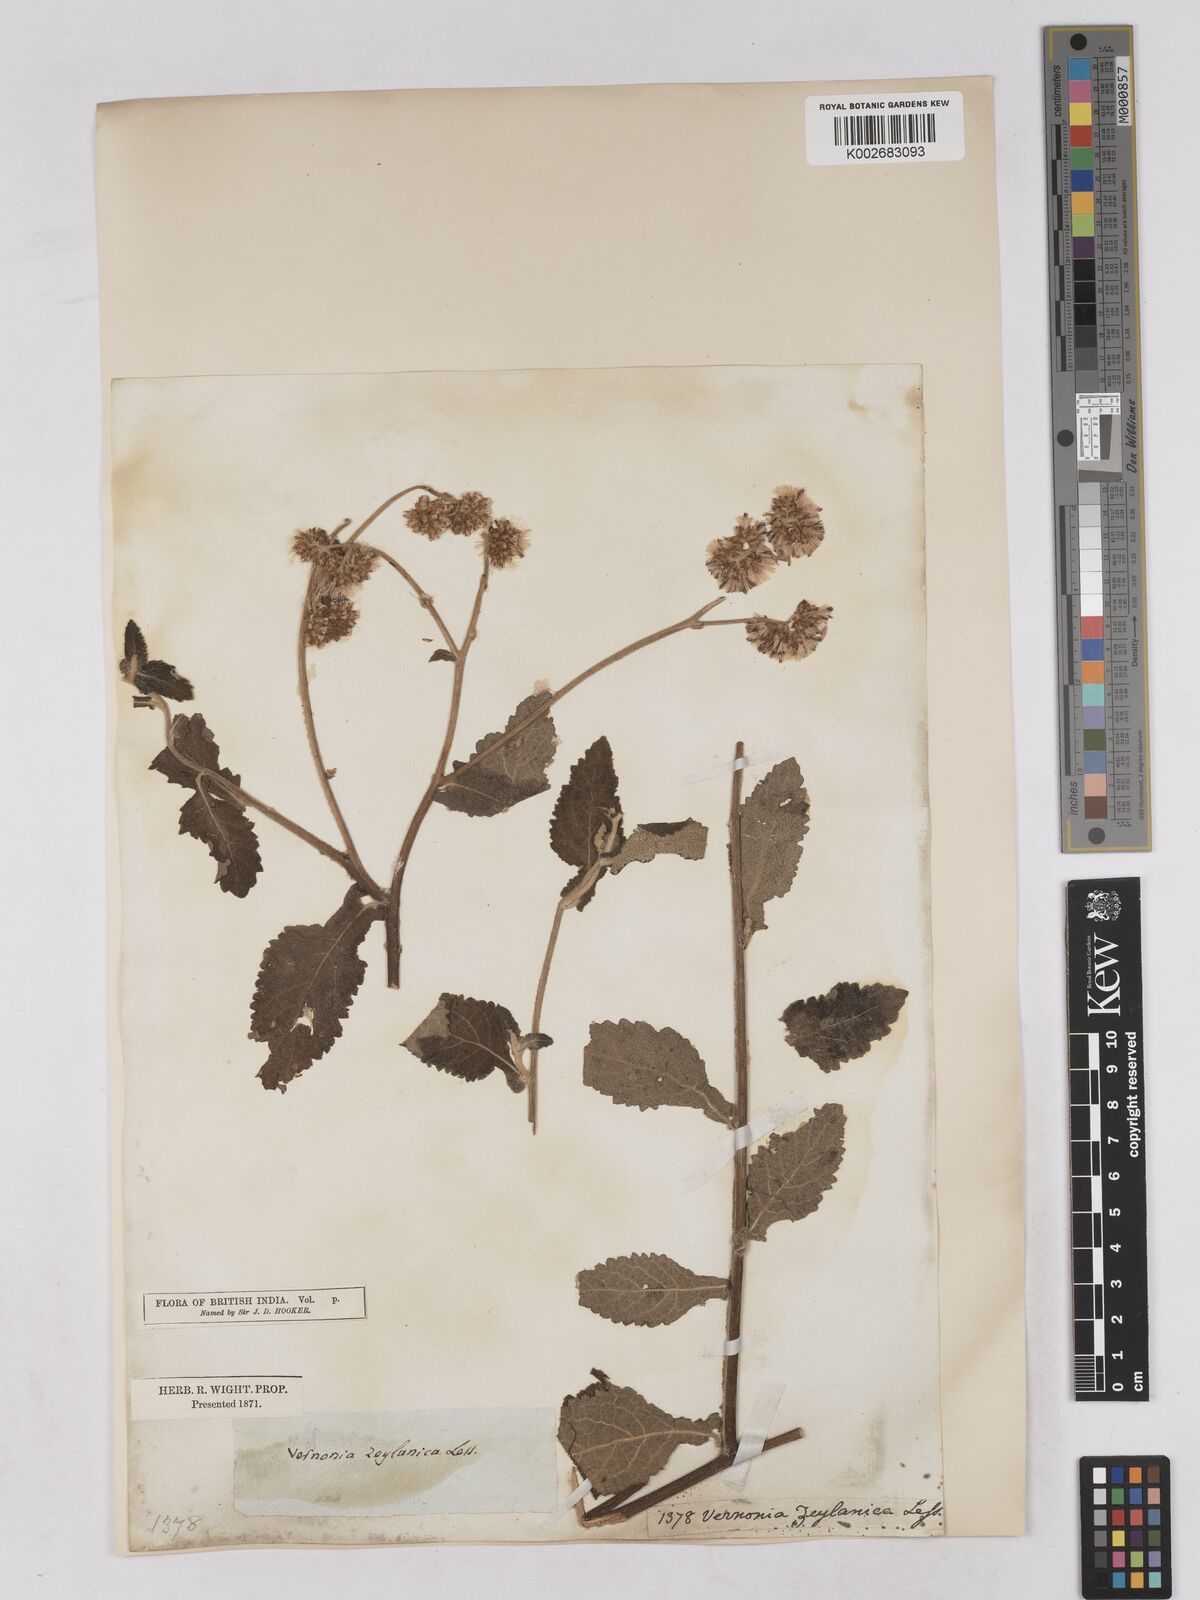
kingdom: Plantae
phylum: Tracheophyta
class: Magnoliopsida
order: Asterales
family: Asteraceae
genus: Jeffreycia
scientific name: Jeffreycia zeylanica
